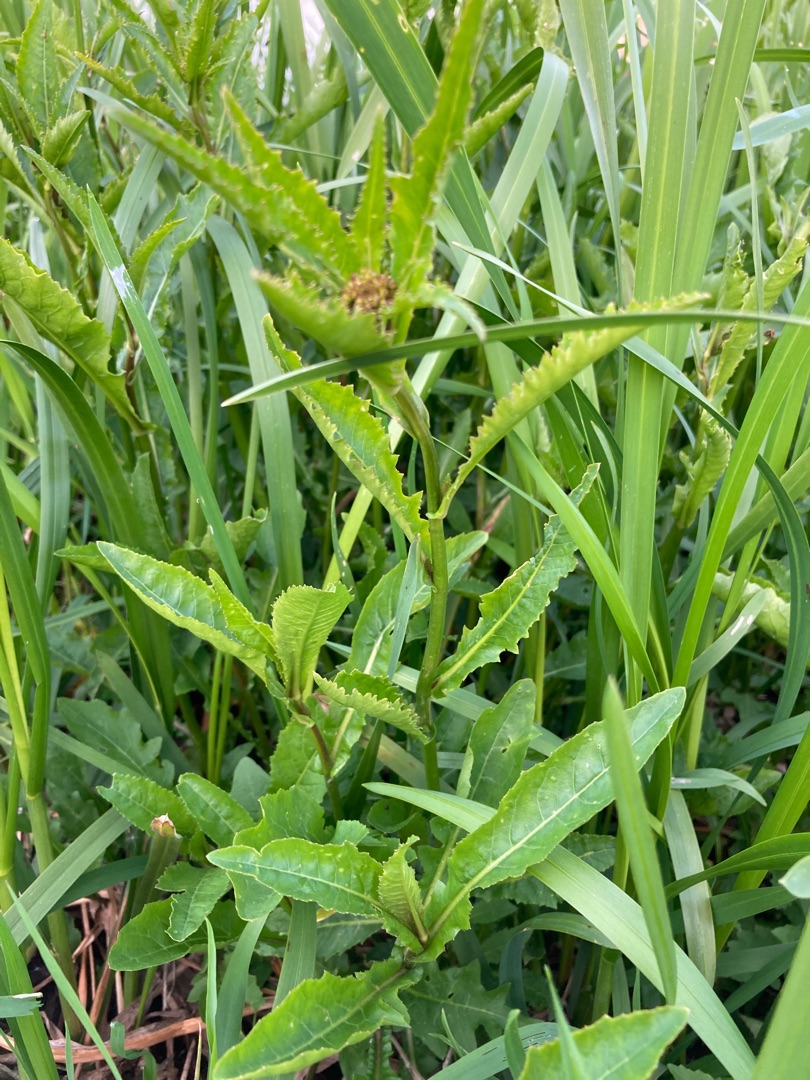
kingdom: Plantae
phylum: Tracheophyta
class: Magnoliopsida
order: Brassicales
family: Brassicaceae
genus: Rorippa
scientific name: Rorippa amphibia
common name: Vandpeberrod
